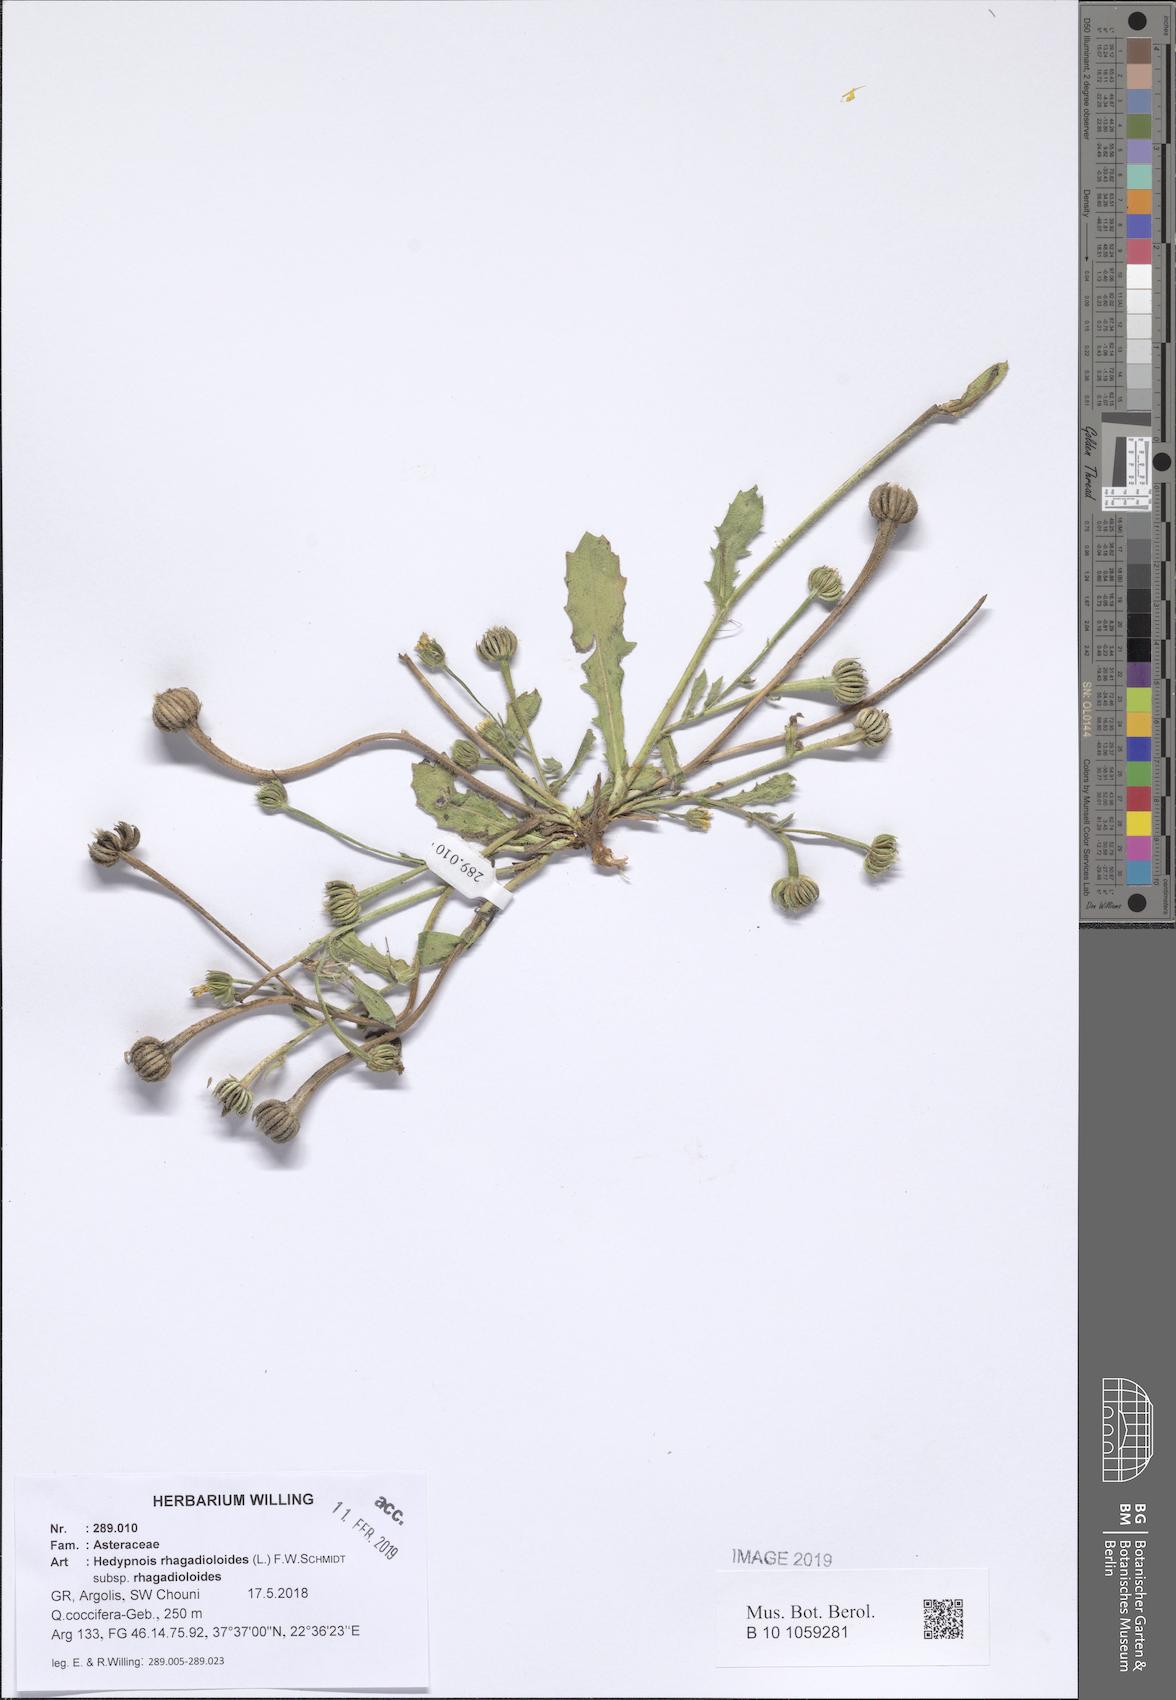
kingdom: Plantae
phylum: Tracheophyta
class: Magnoliopsida
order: Asterales
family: Asteraceae
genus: Hedypnois
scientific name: Hedypnois rhagadioloides
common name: Cretan weed
